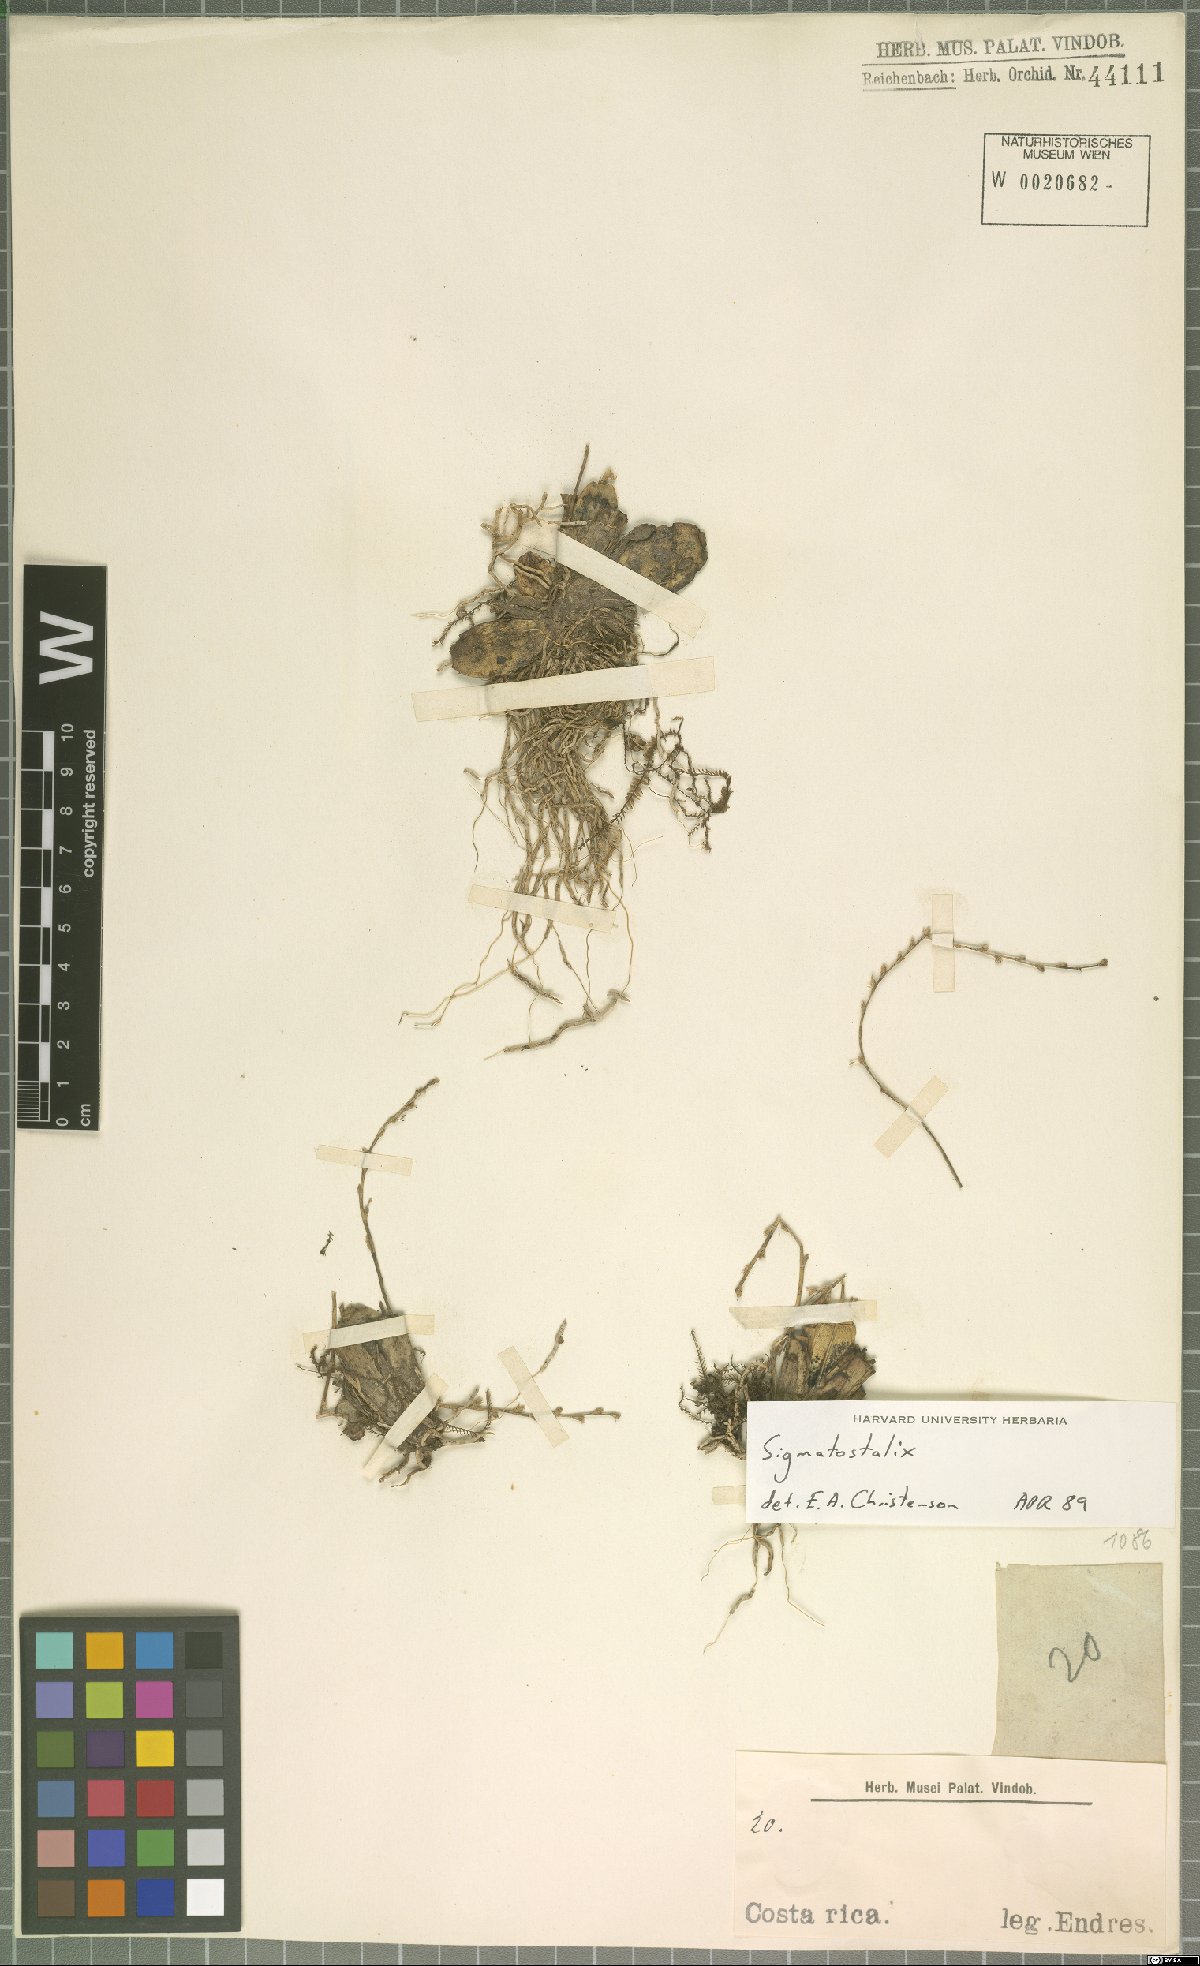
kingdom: Plantae
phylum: Tracheophyta
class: Liliopsida
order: Asparagales
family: Orchidaceae
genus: Oncidium
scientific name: Oncidium
